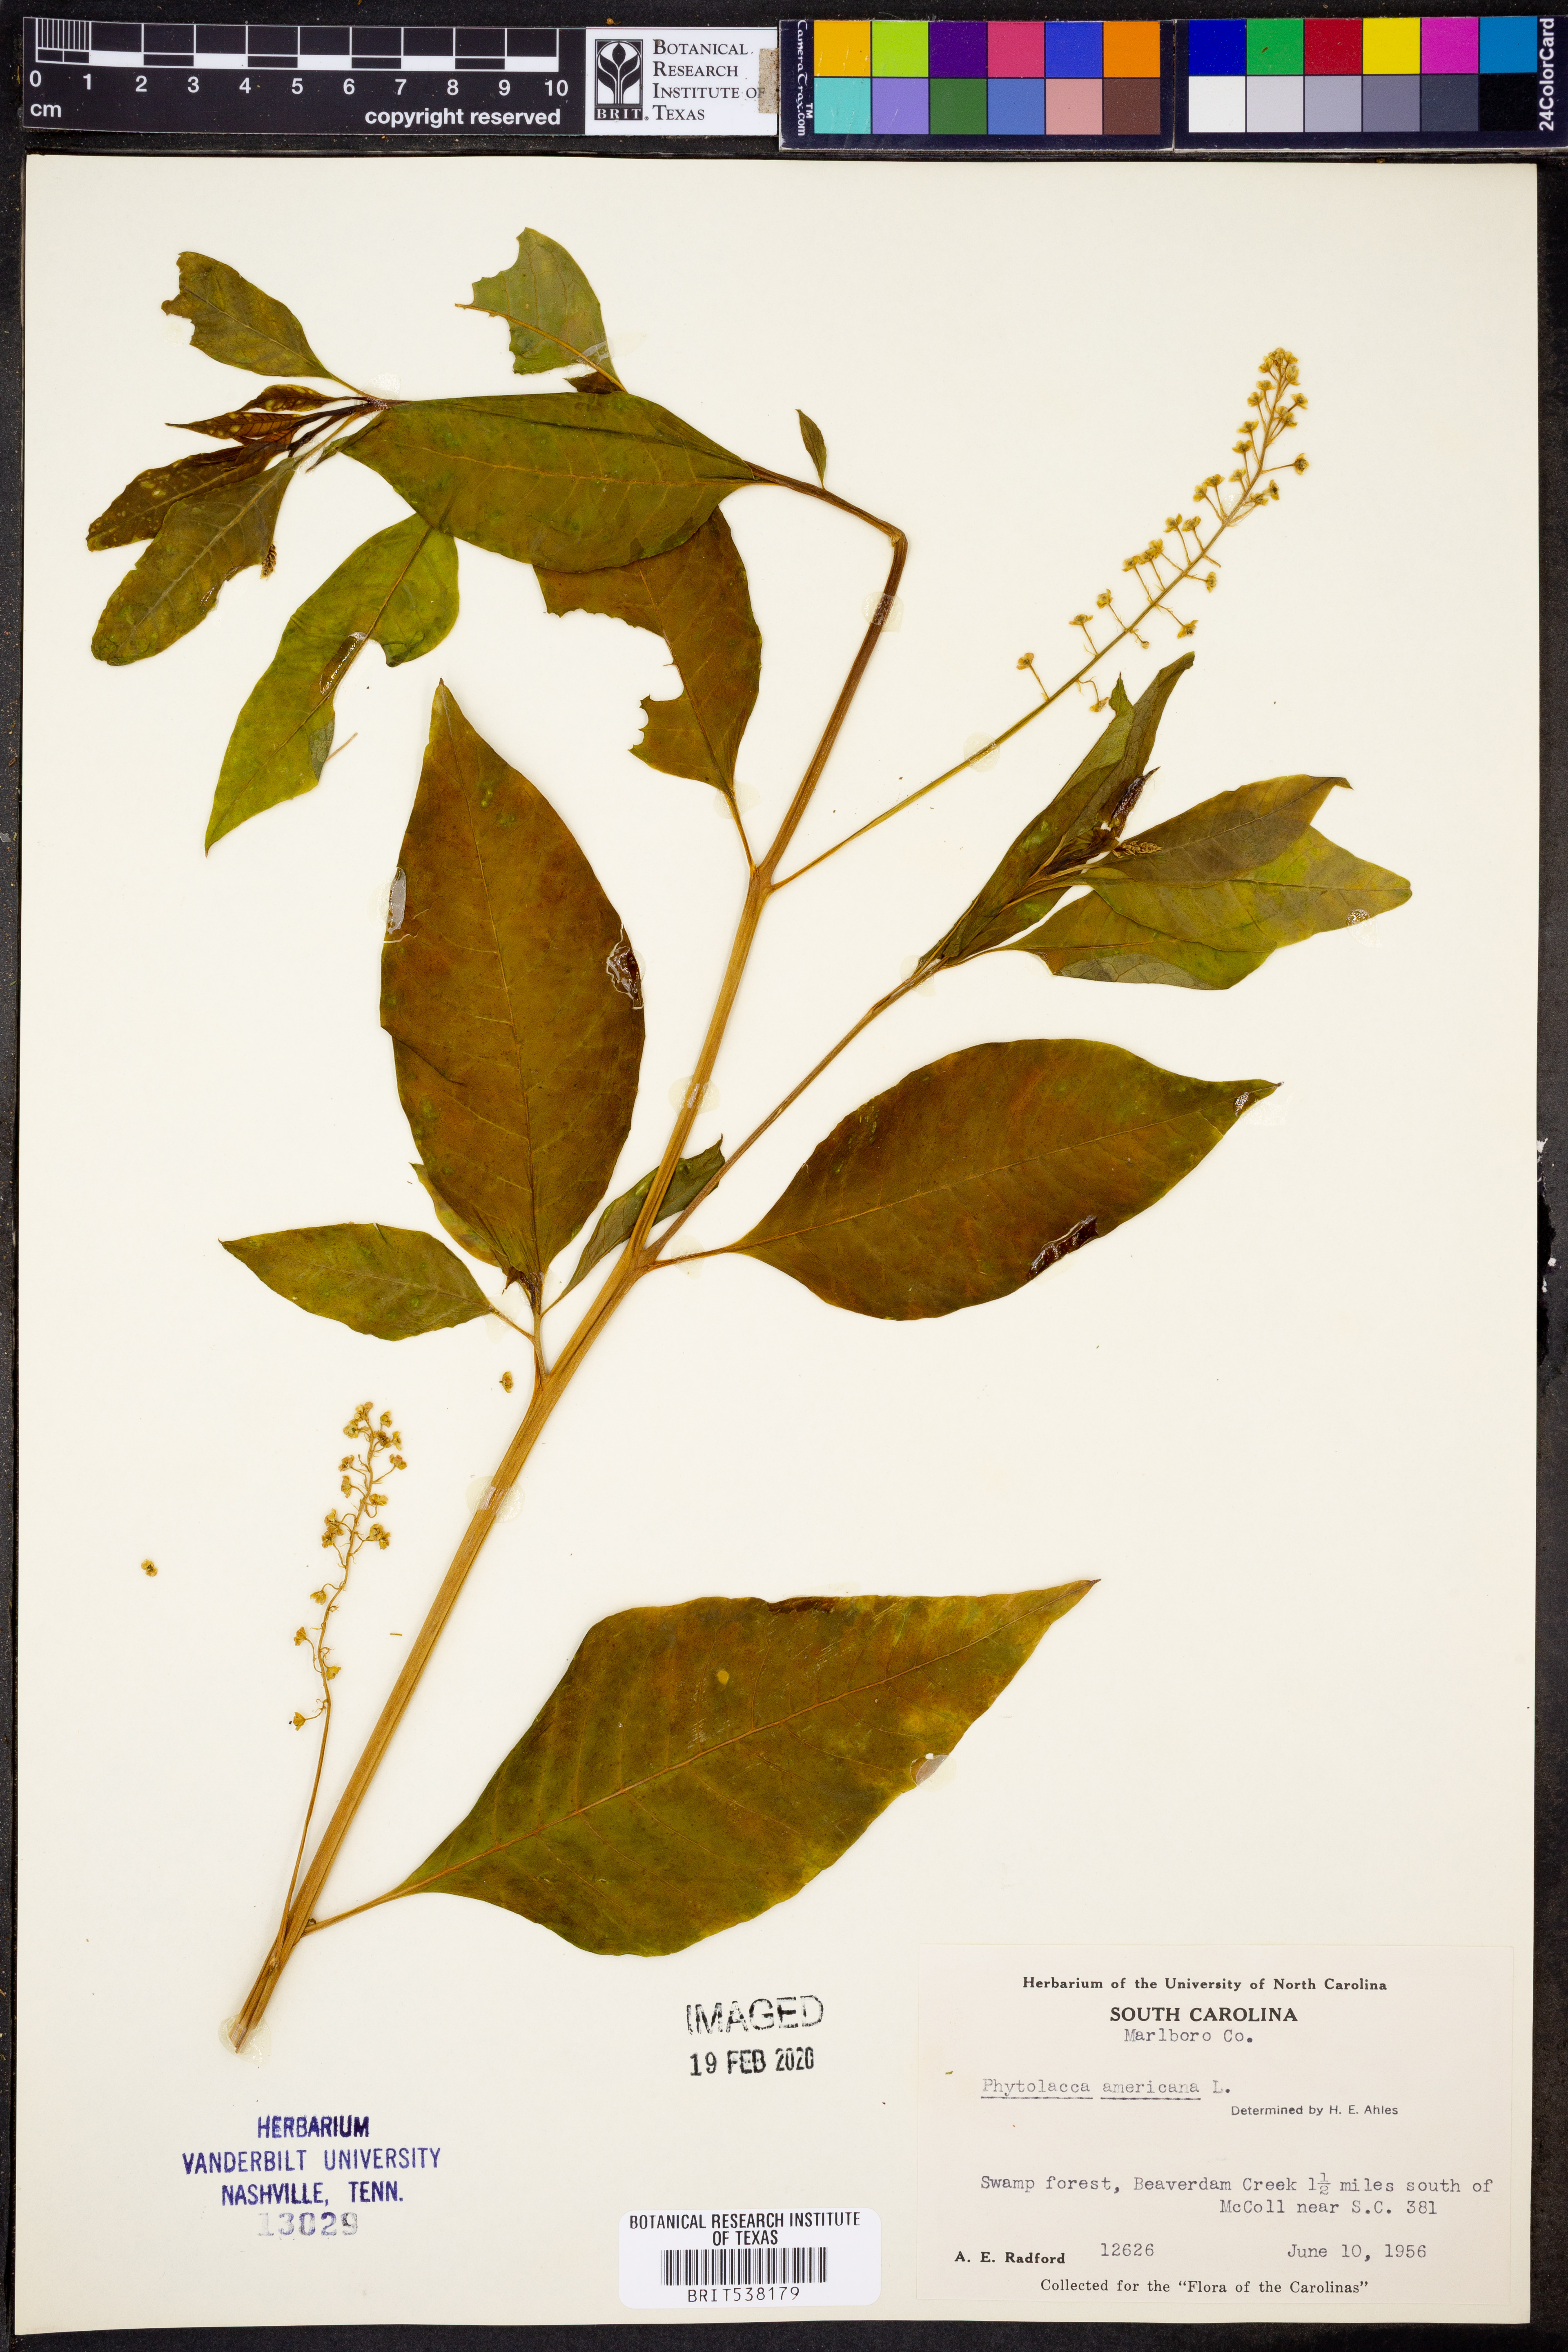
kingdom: Plantae
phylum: Tracheophyta
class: Magnoliopsida
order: Caryophyllales
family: Phytolaccaceae
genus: Phytolacca
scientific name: Phytolacca americana
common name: American pokeweed
